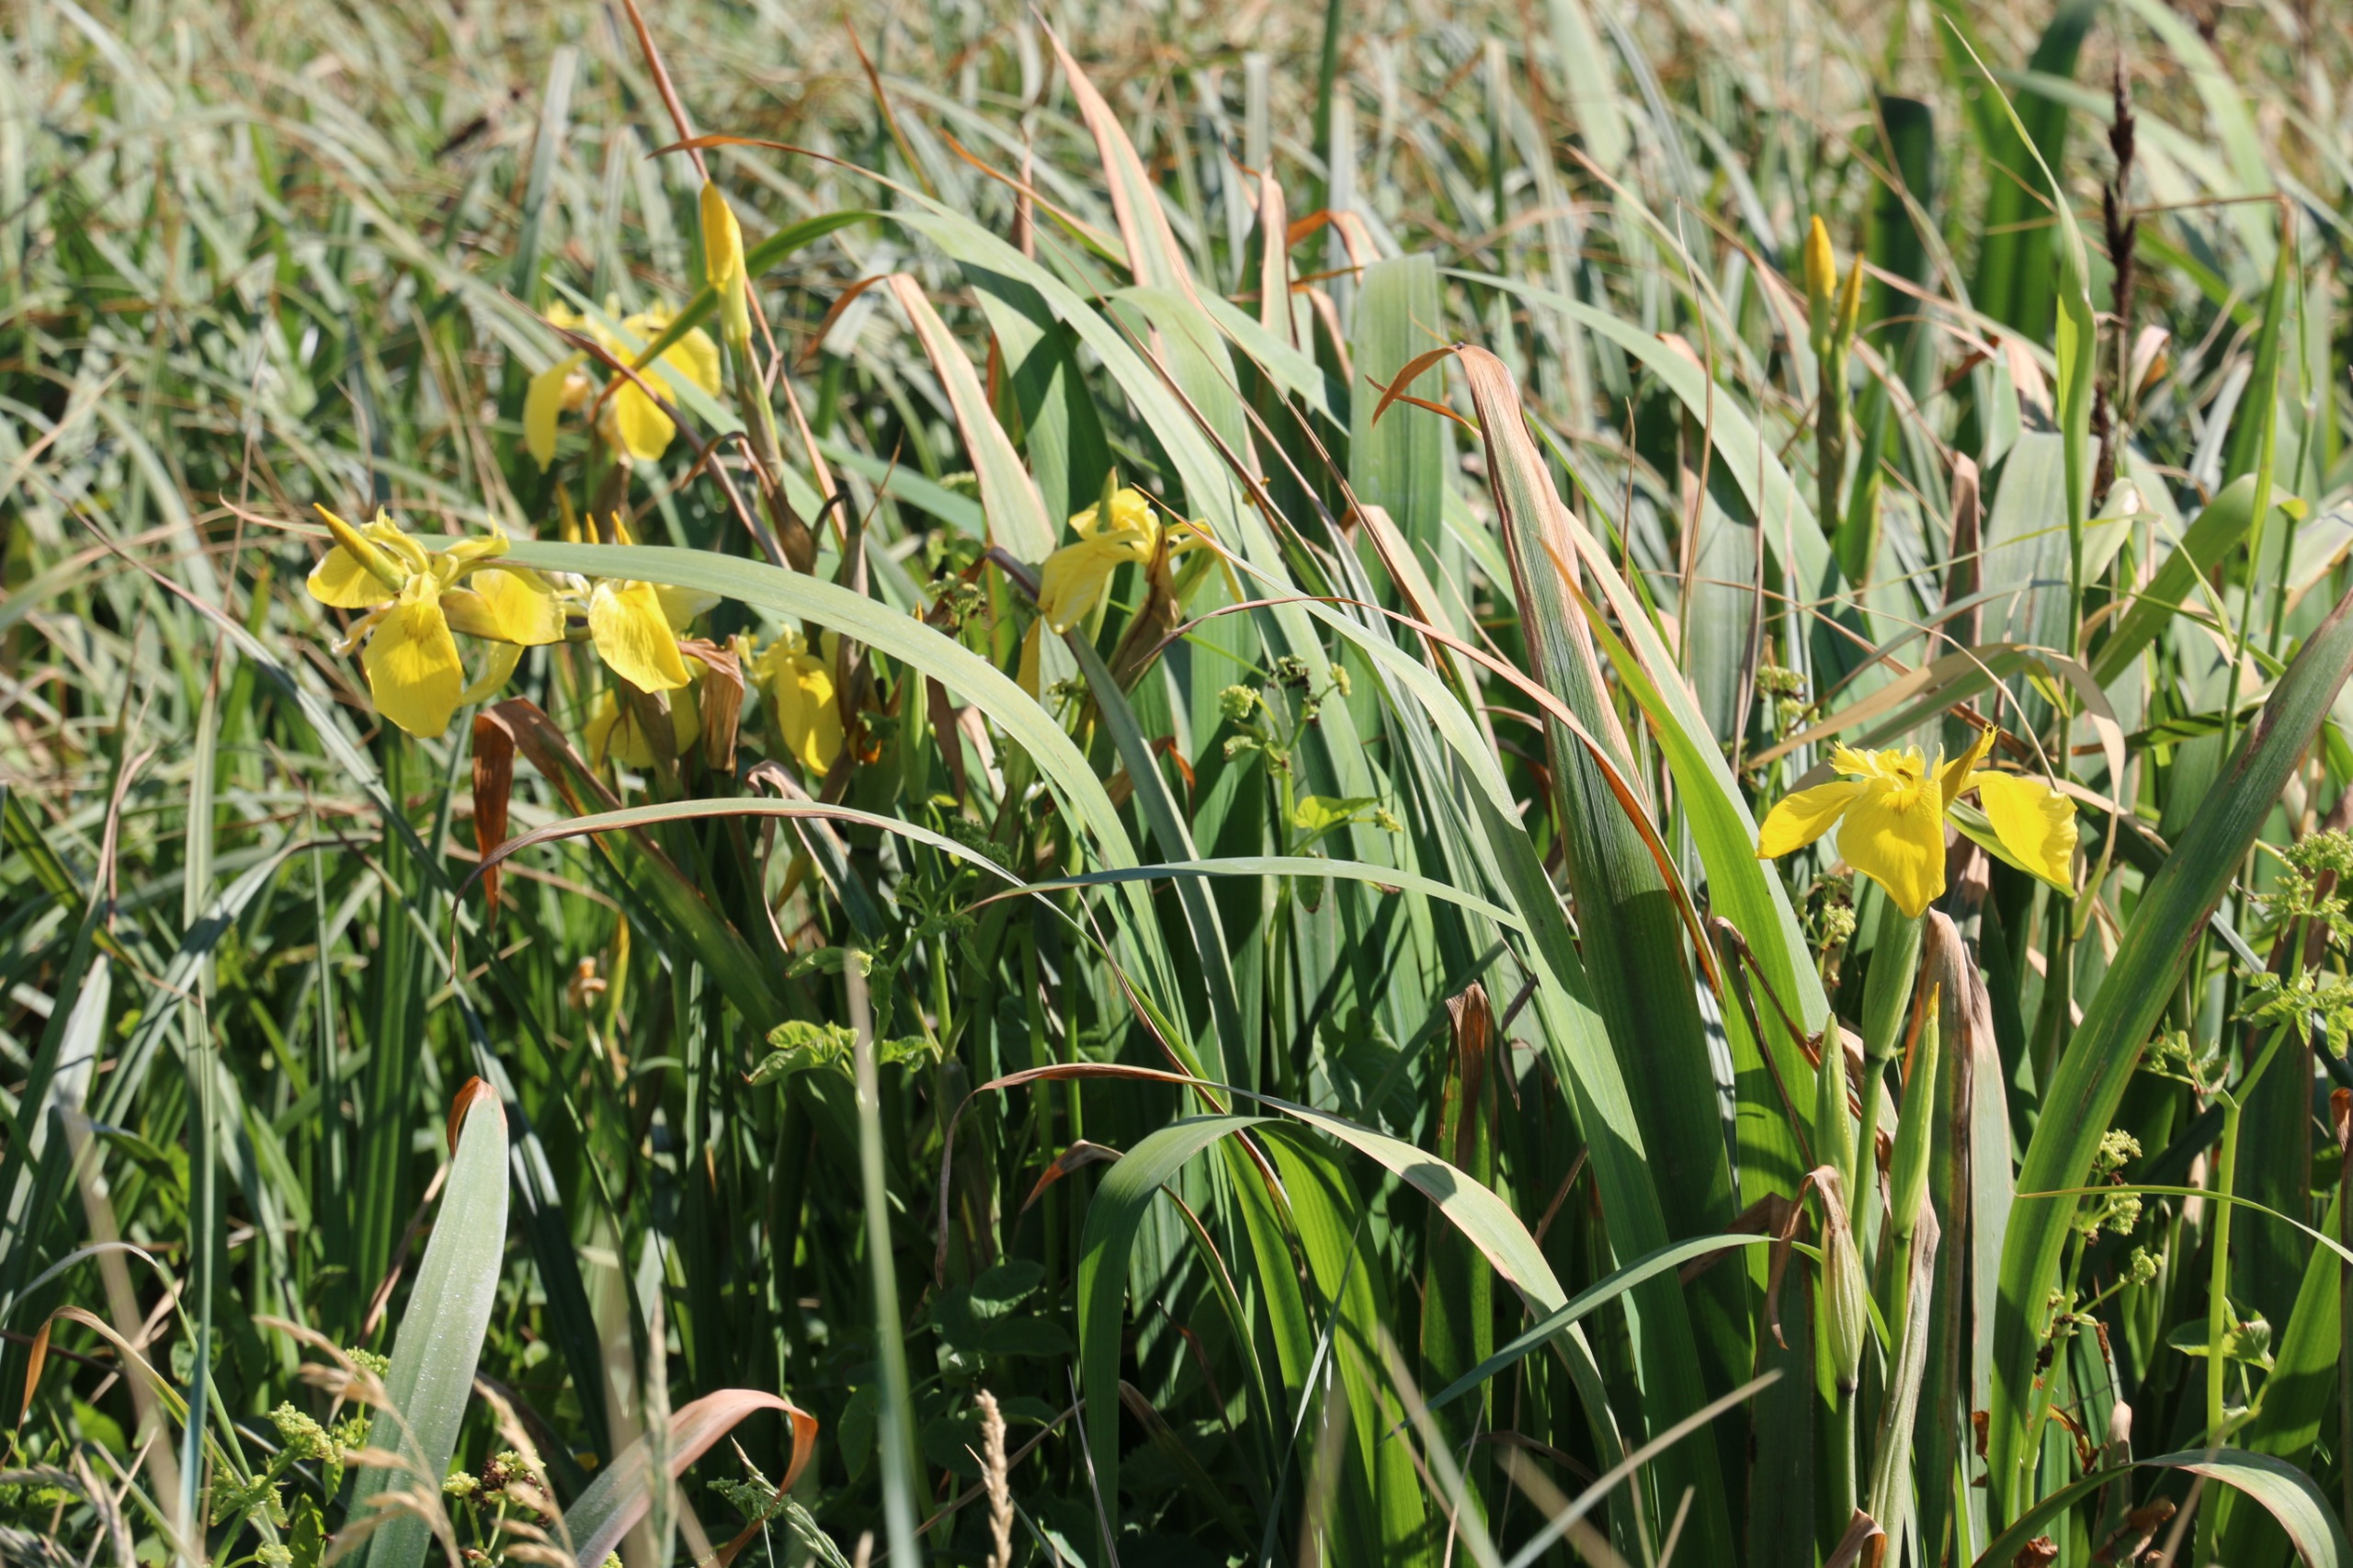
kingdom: Plantae
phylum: Tracheophyta
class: Liliopsida
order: Asparagales
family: Iridaceae
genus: Iris
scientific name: Iris pseudacorus
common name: Gul iris
